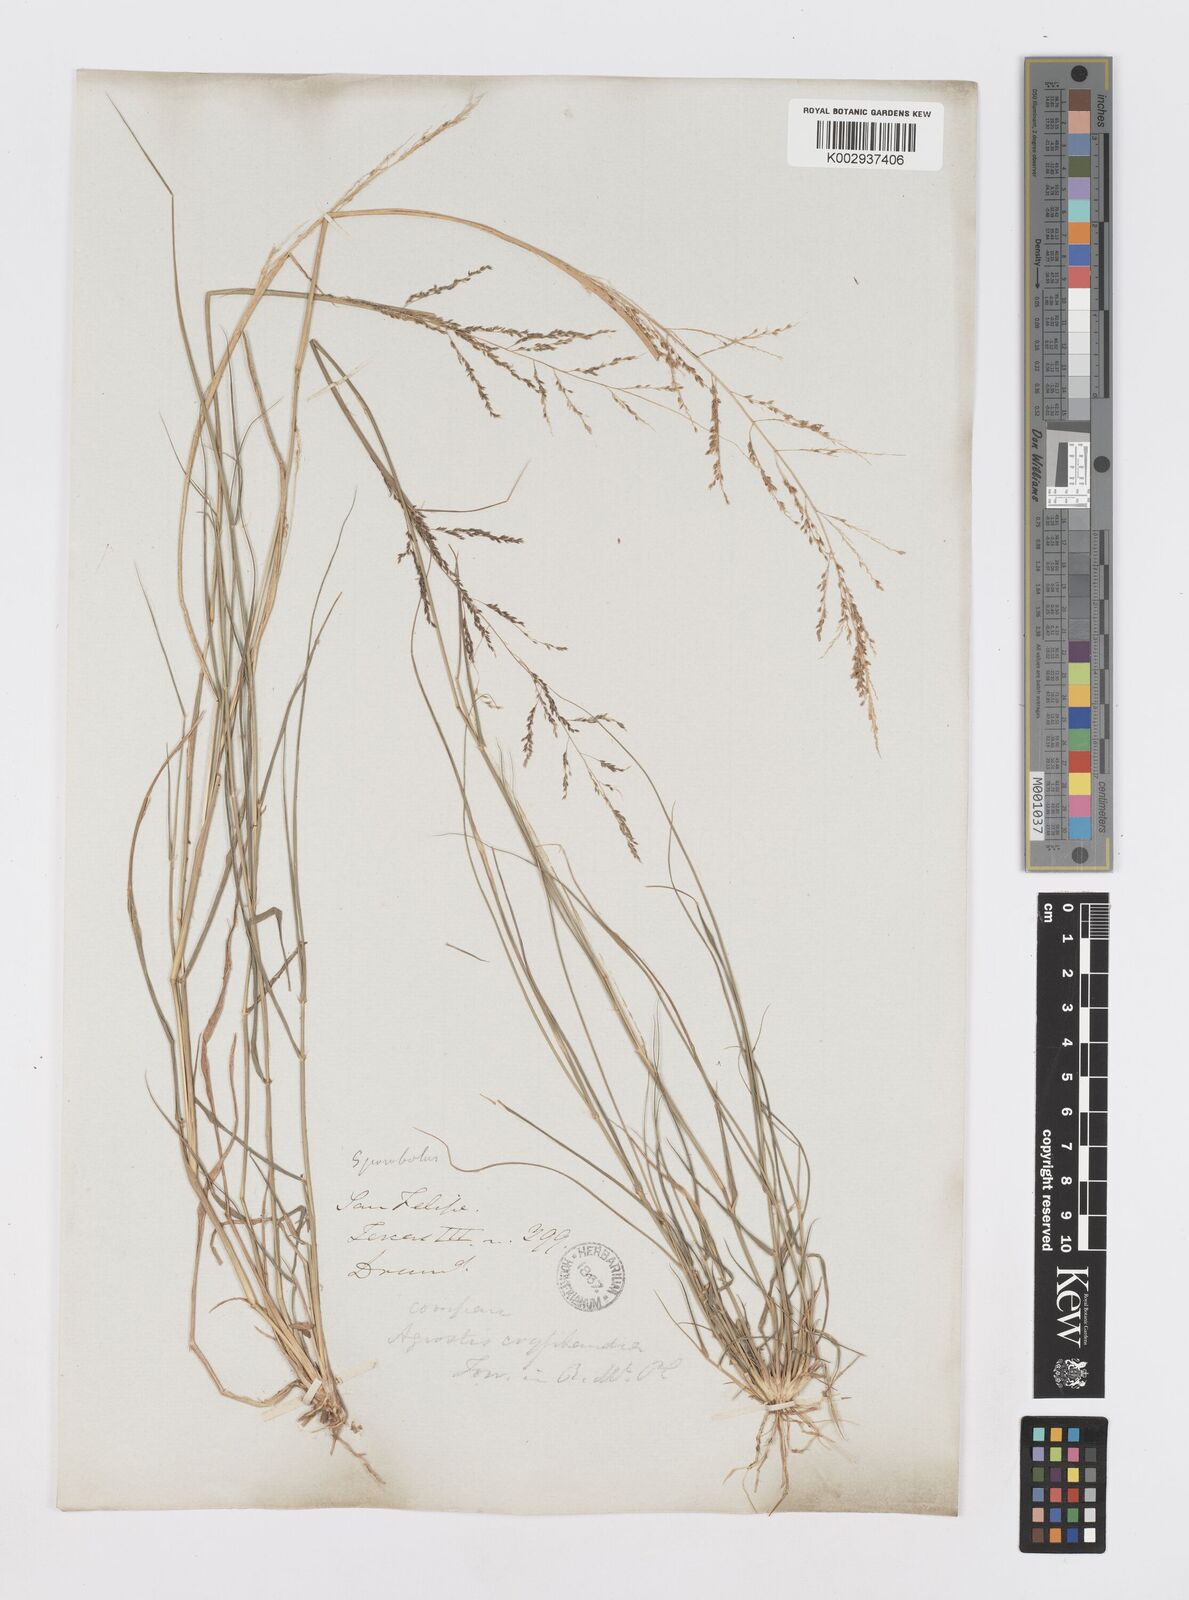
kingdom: Plantae
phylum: Tracheophyta
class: Liliopsida
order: Poales
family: Poaceae
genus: Sporobolus
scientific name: Sporobolus cryptandrus
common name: Sand dropseed
